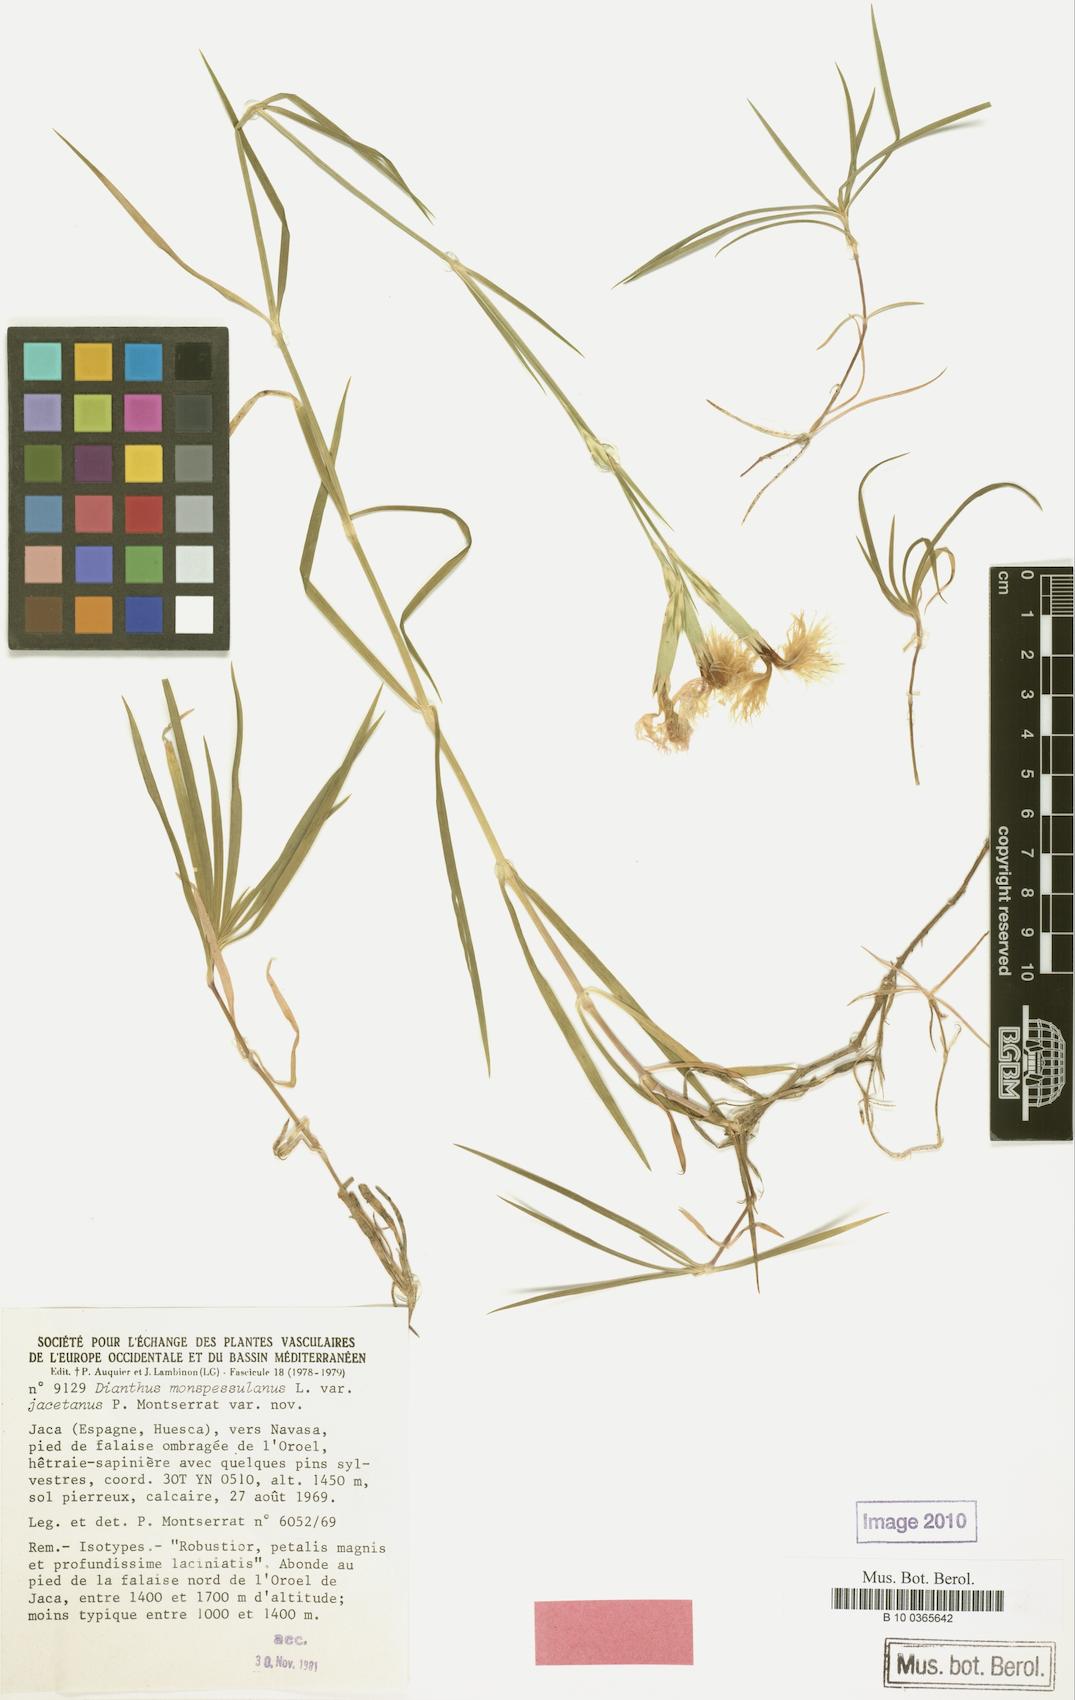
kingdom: Plantae
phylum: Tracheophyta
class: Magnoliopsida
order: Caryophyllales
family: Caryophyllaceae
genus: Dianthus
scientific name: Dianthus hyssopifolius
